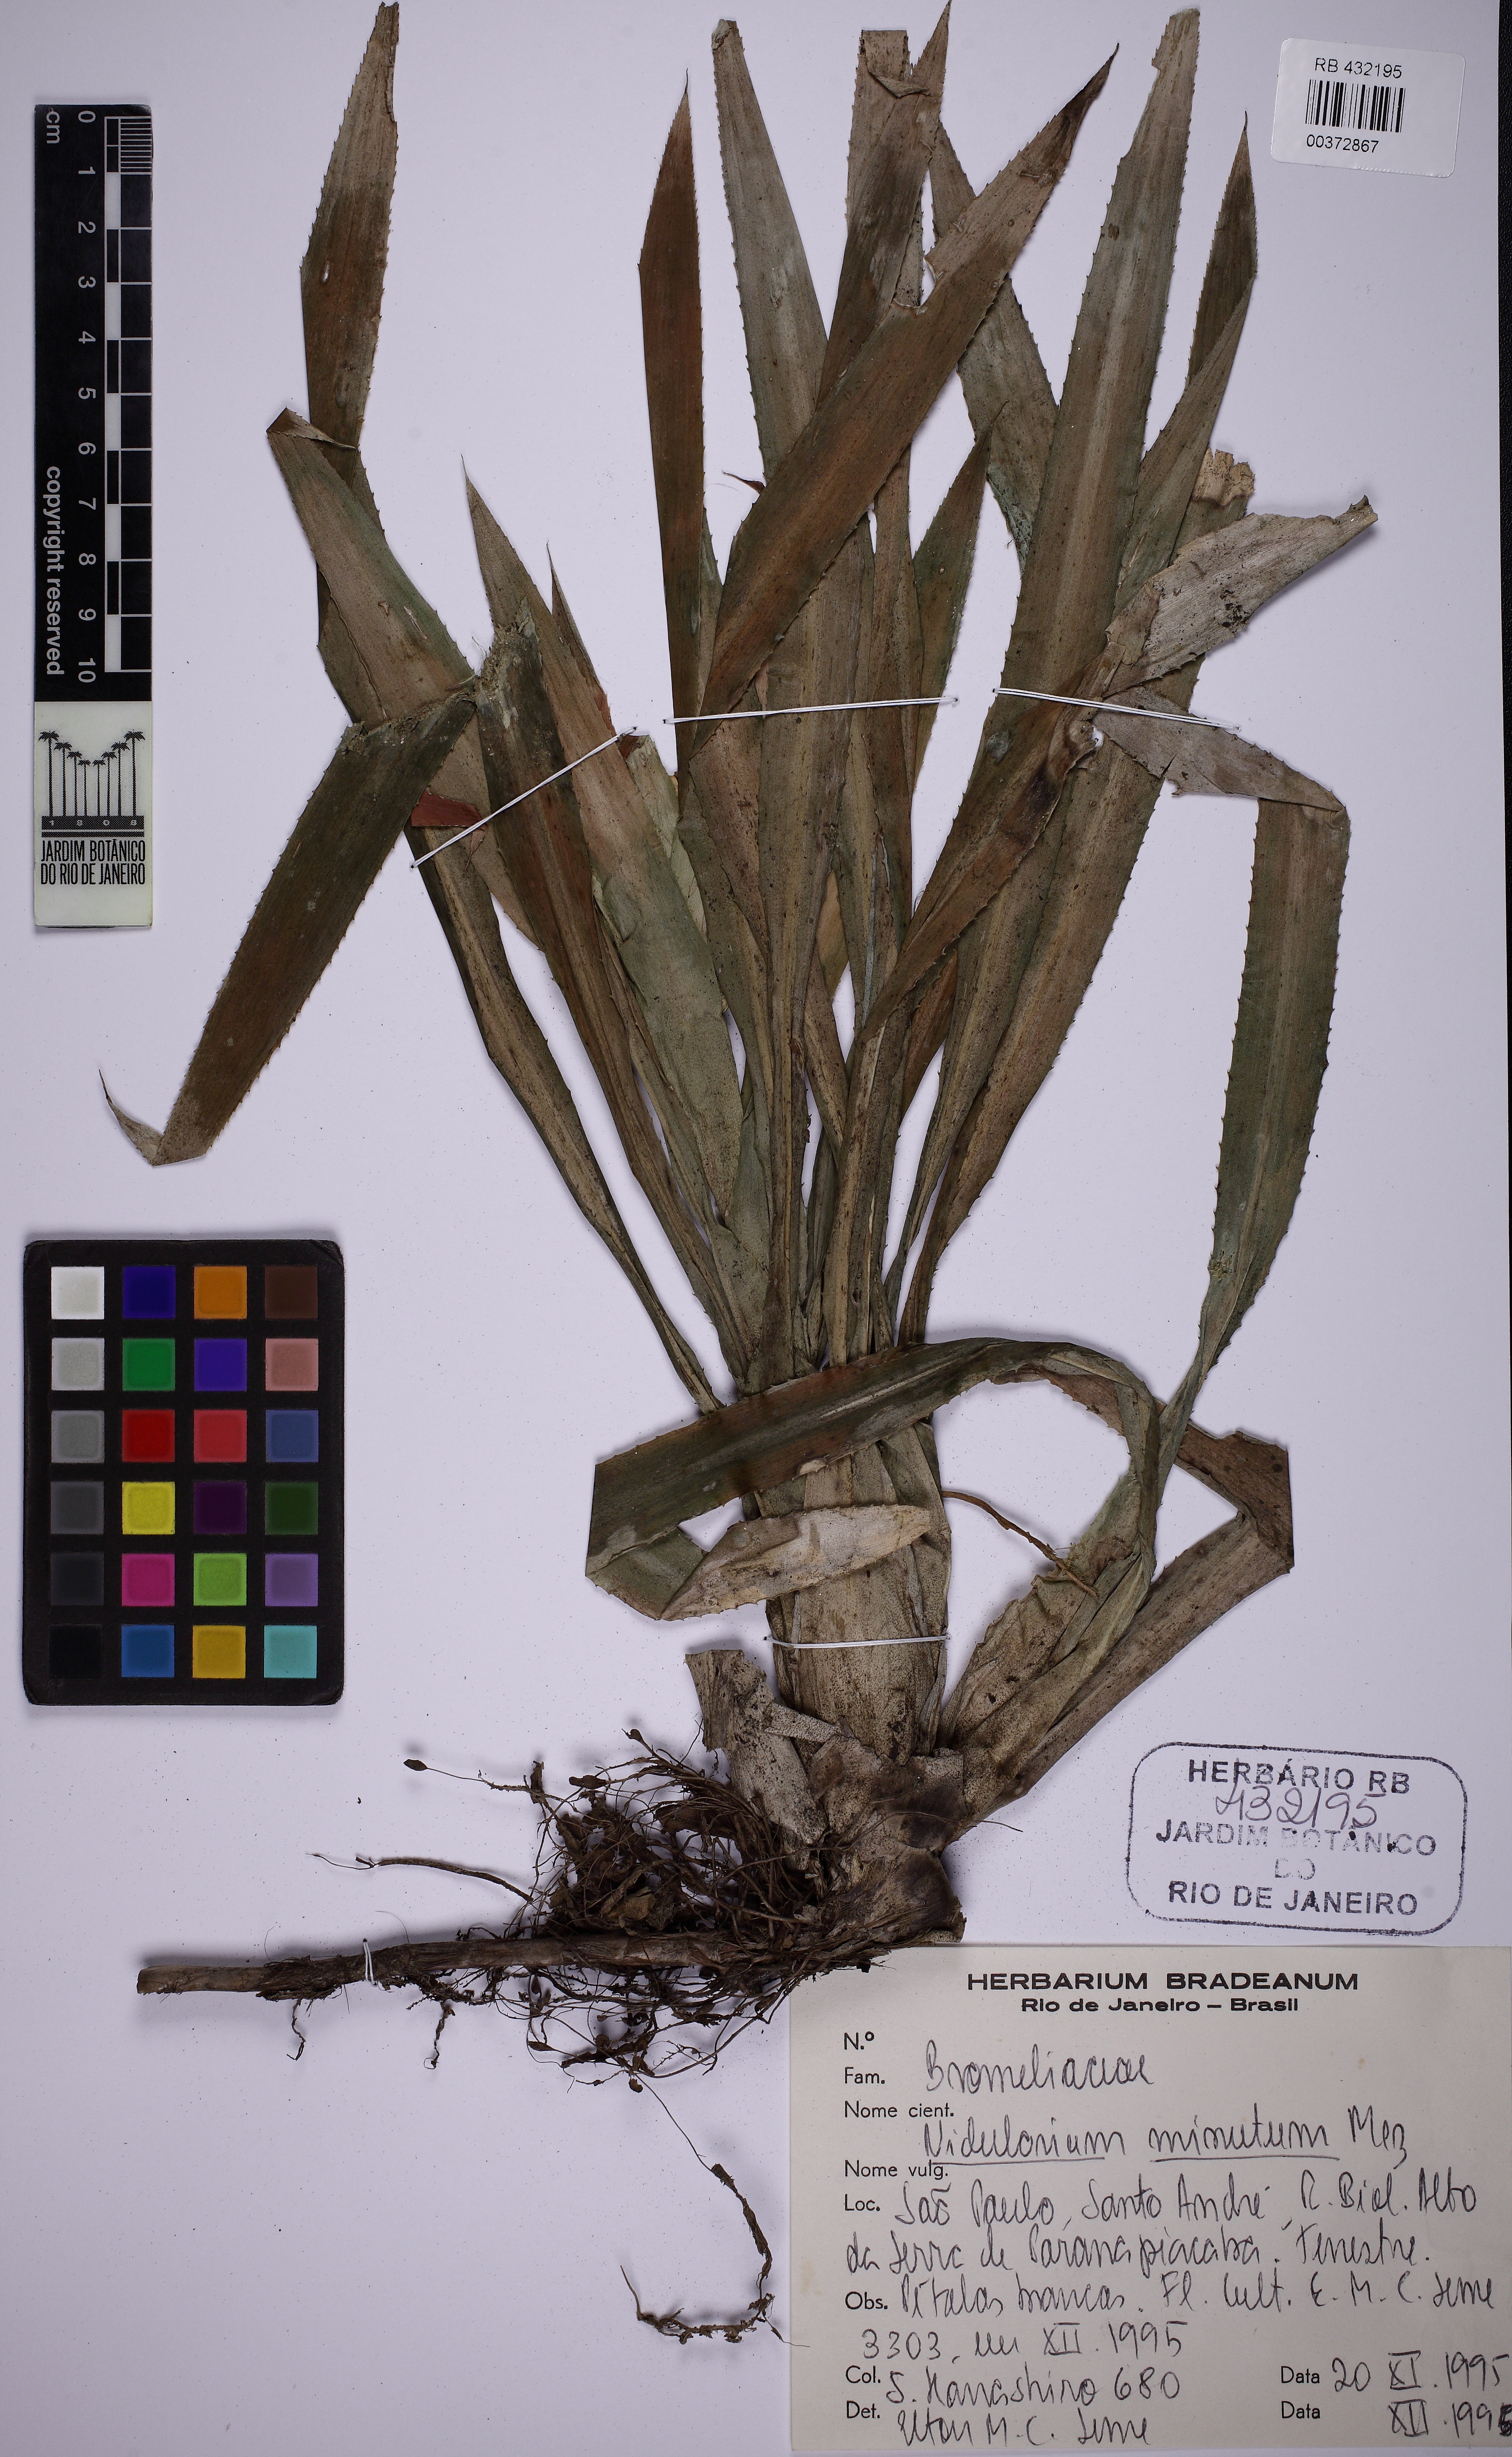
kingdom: Plantae
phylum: Tracheophyta
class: Liliopsida
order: Poales
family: Bromeliaceae
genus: Nidularium
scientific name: Nidularium minutum
